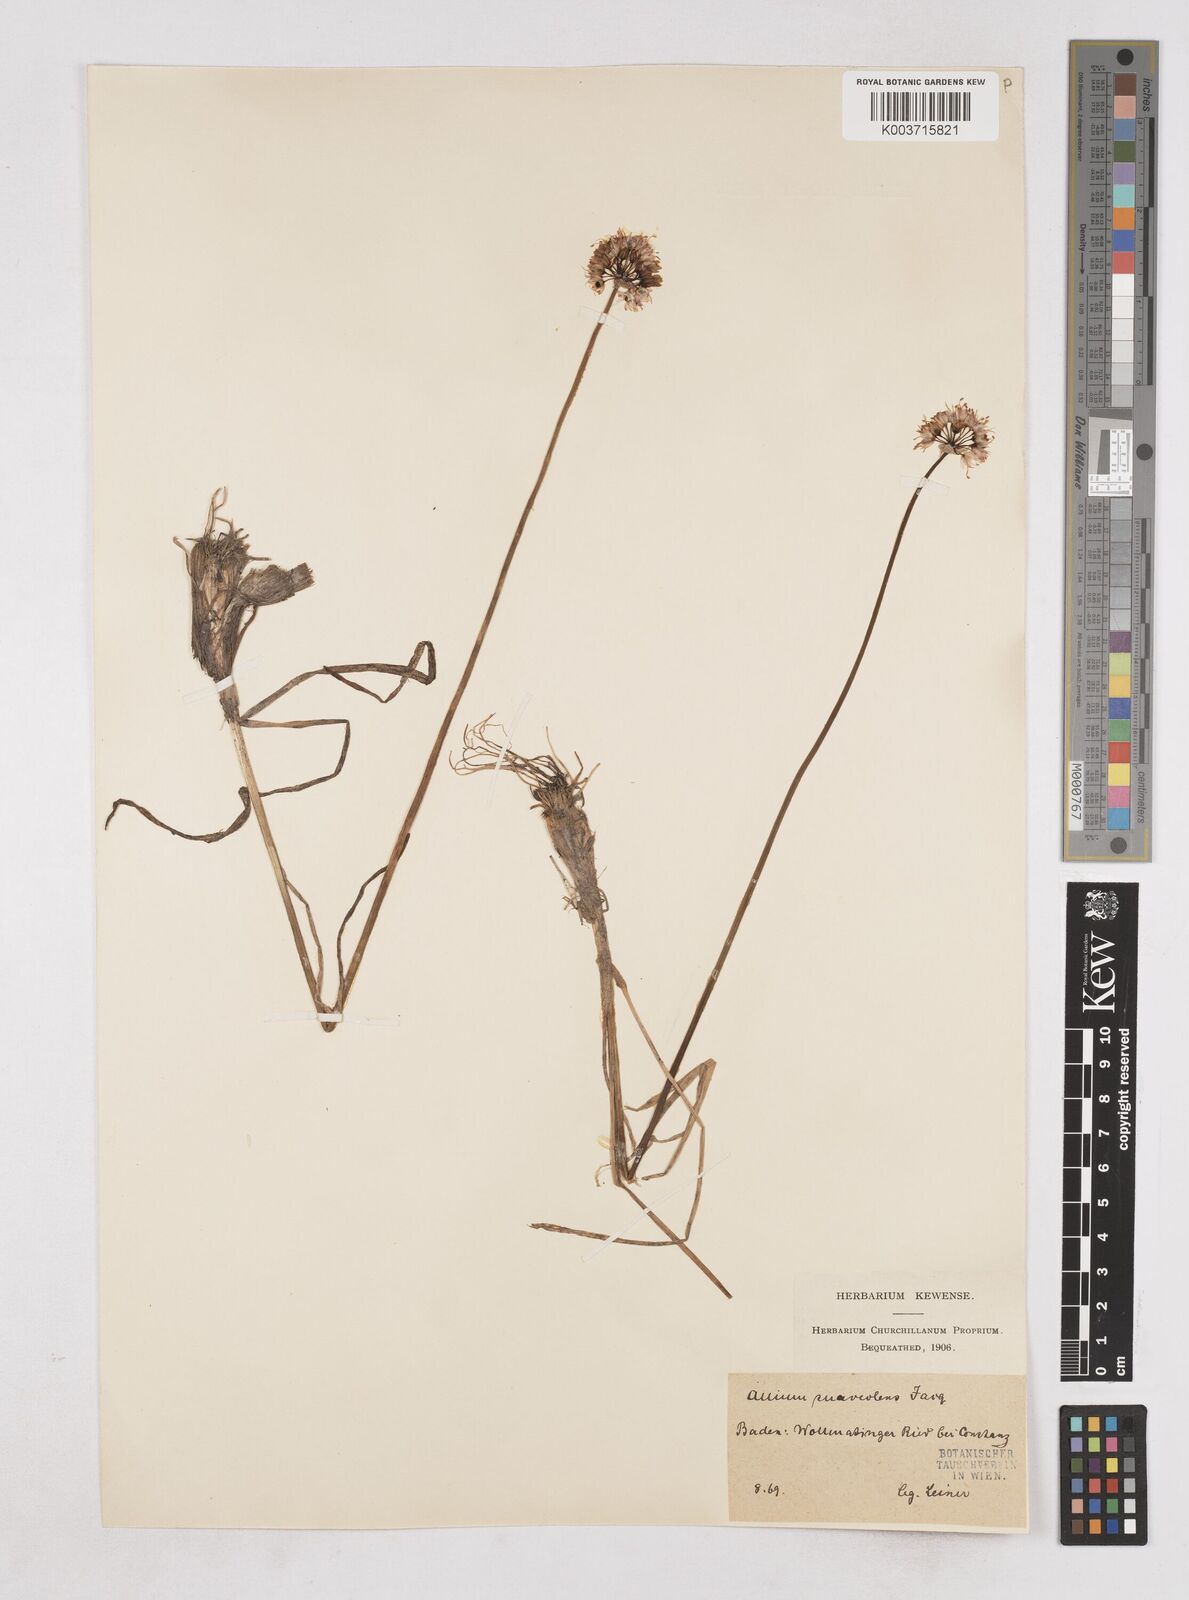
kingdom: Plantae
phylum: Tracheophyta
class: Liliopsida
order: Asparagales
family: Amaryllidaceae
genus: Allium
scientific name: Allium suaveolens
